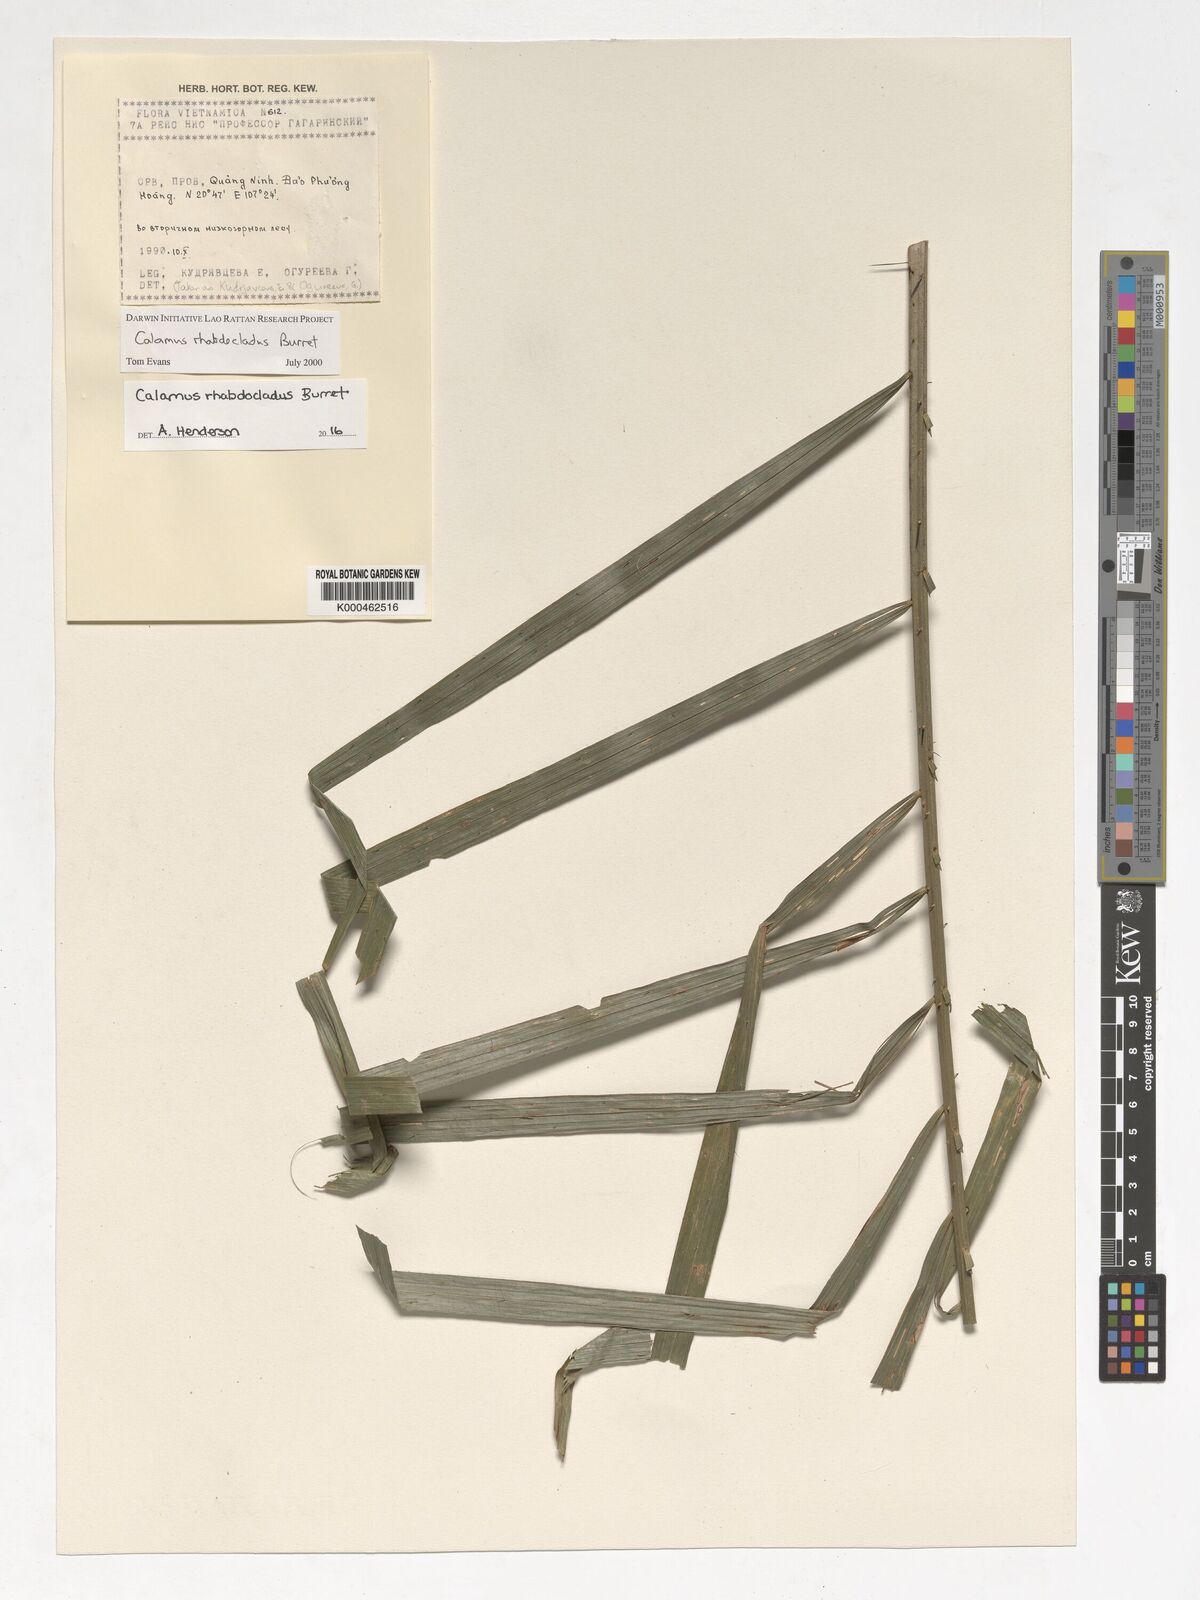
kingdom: Plantae
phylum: Tracheophyta
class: Liliopsida
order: Arecales
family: Arecaceae
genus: Calamus
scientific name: Calamus rhabdocladus
